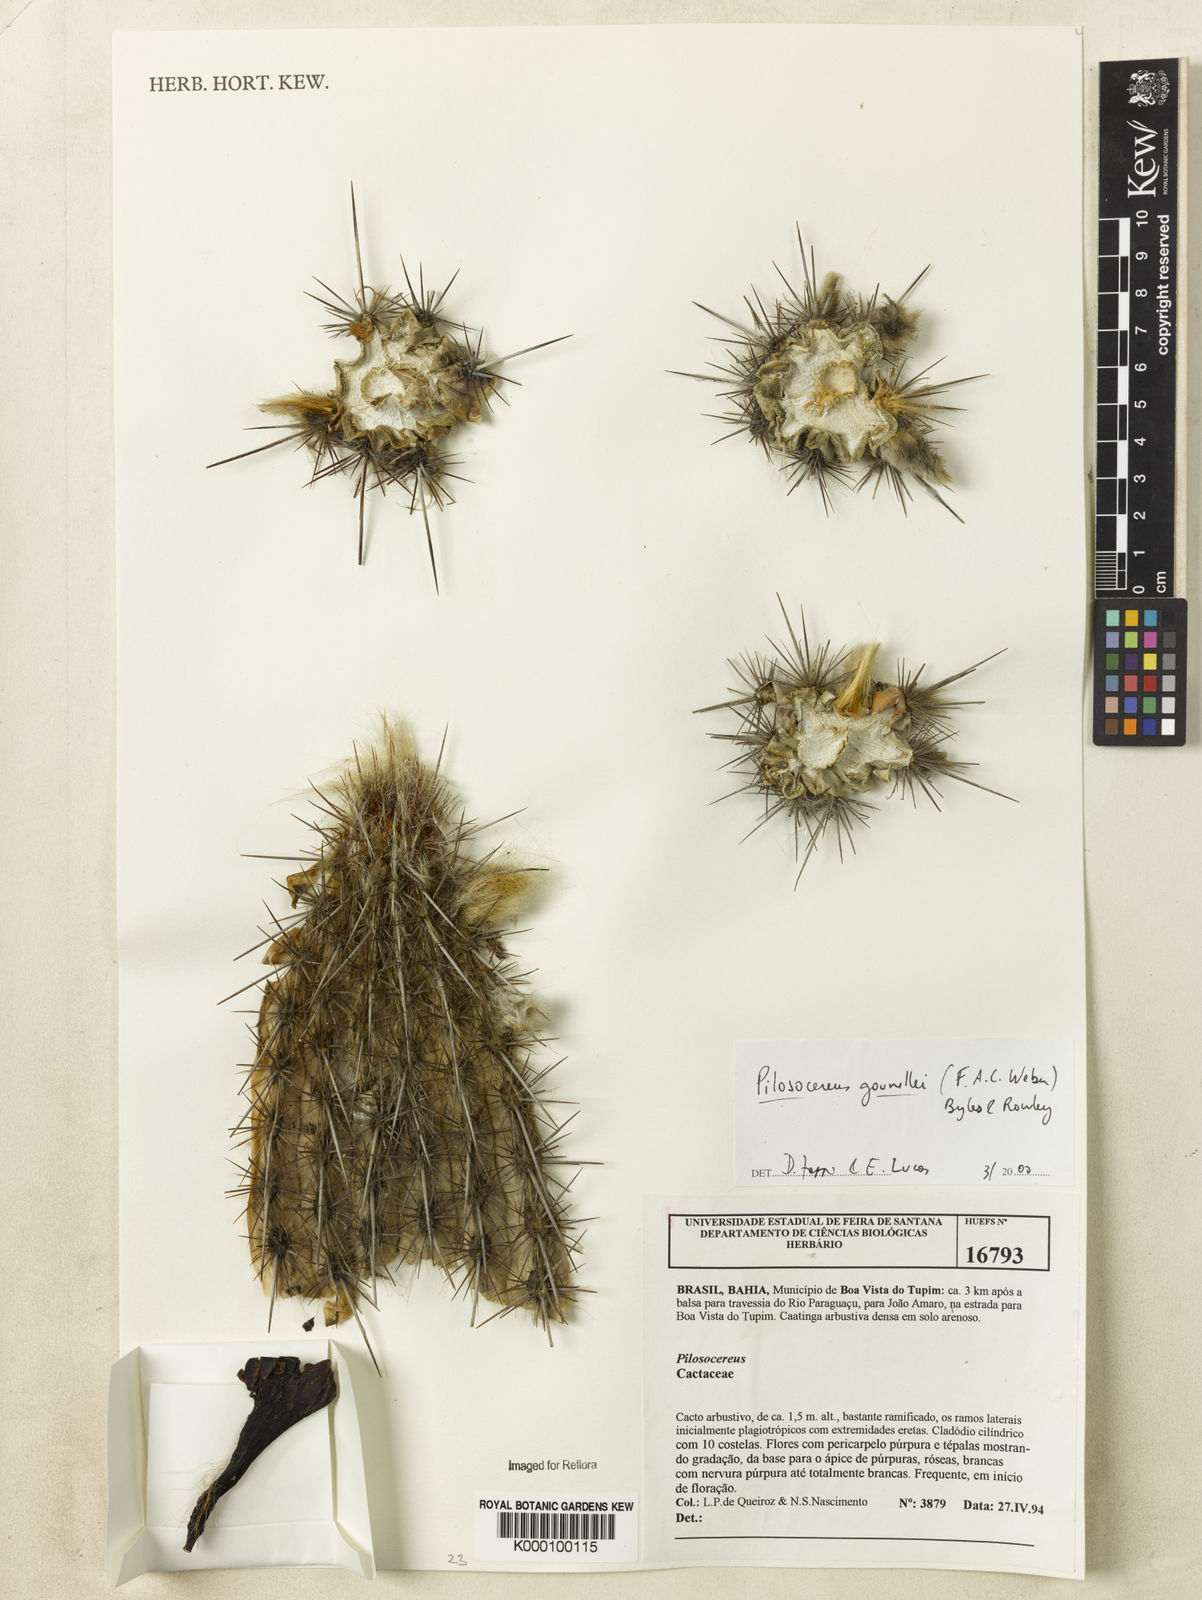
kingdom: Plantae
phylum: Tracheophyta
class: Magnoliopsida
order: Caryophyllales
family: Cactaceae
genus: Xiquexique
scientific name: Xiquexique gounellei
